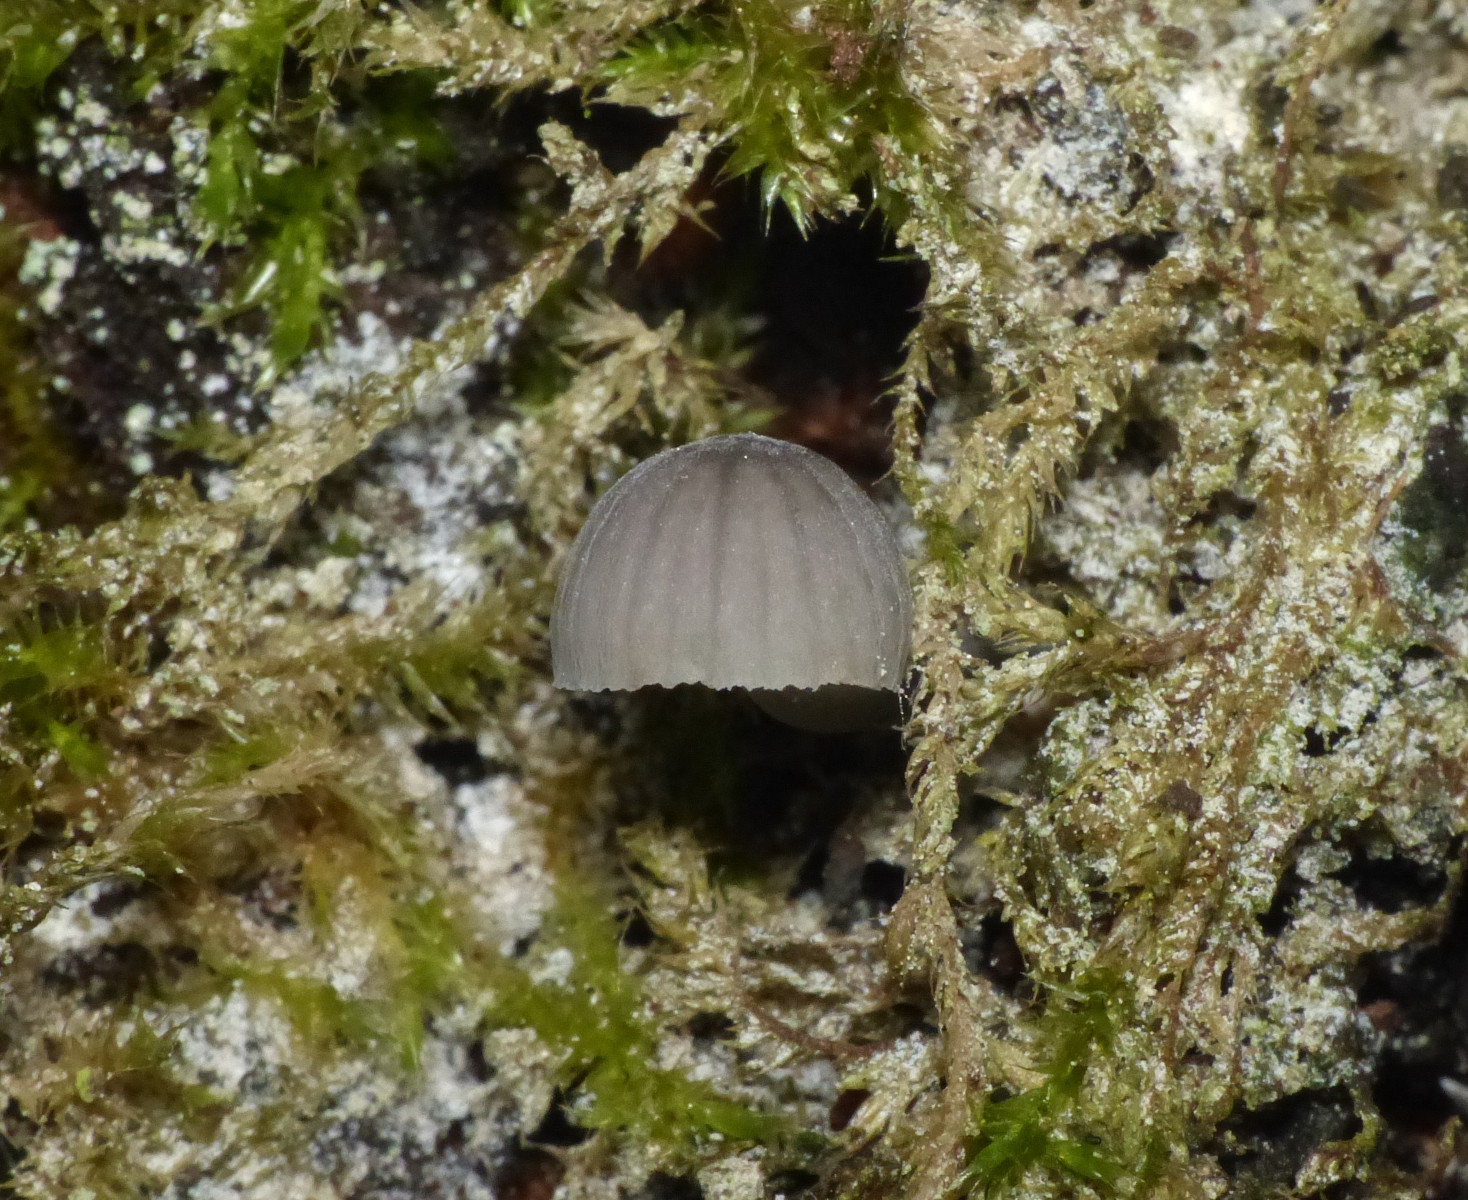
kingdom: Fungi
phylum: Basidiomycota
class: Agaricomycetes
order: Agaricales
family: Mycenaceae
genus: Mycena
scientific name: Mycena pseudocorticola
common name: gråblå bark-huesvamp
